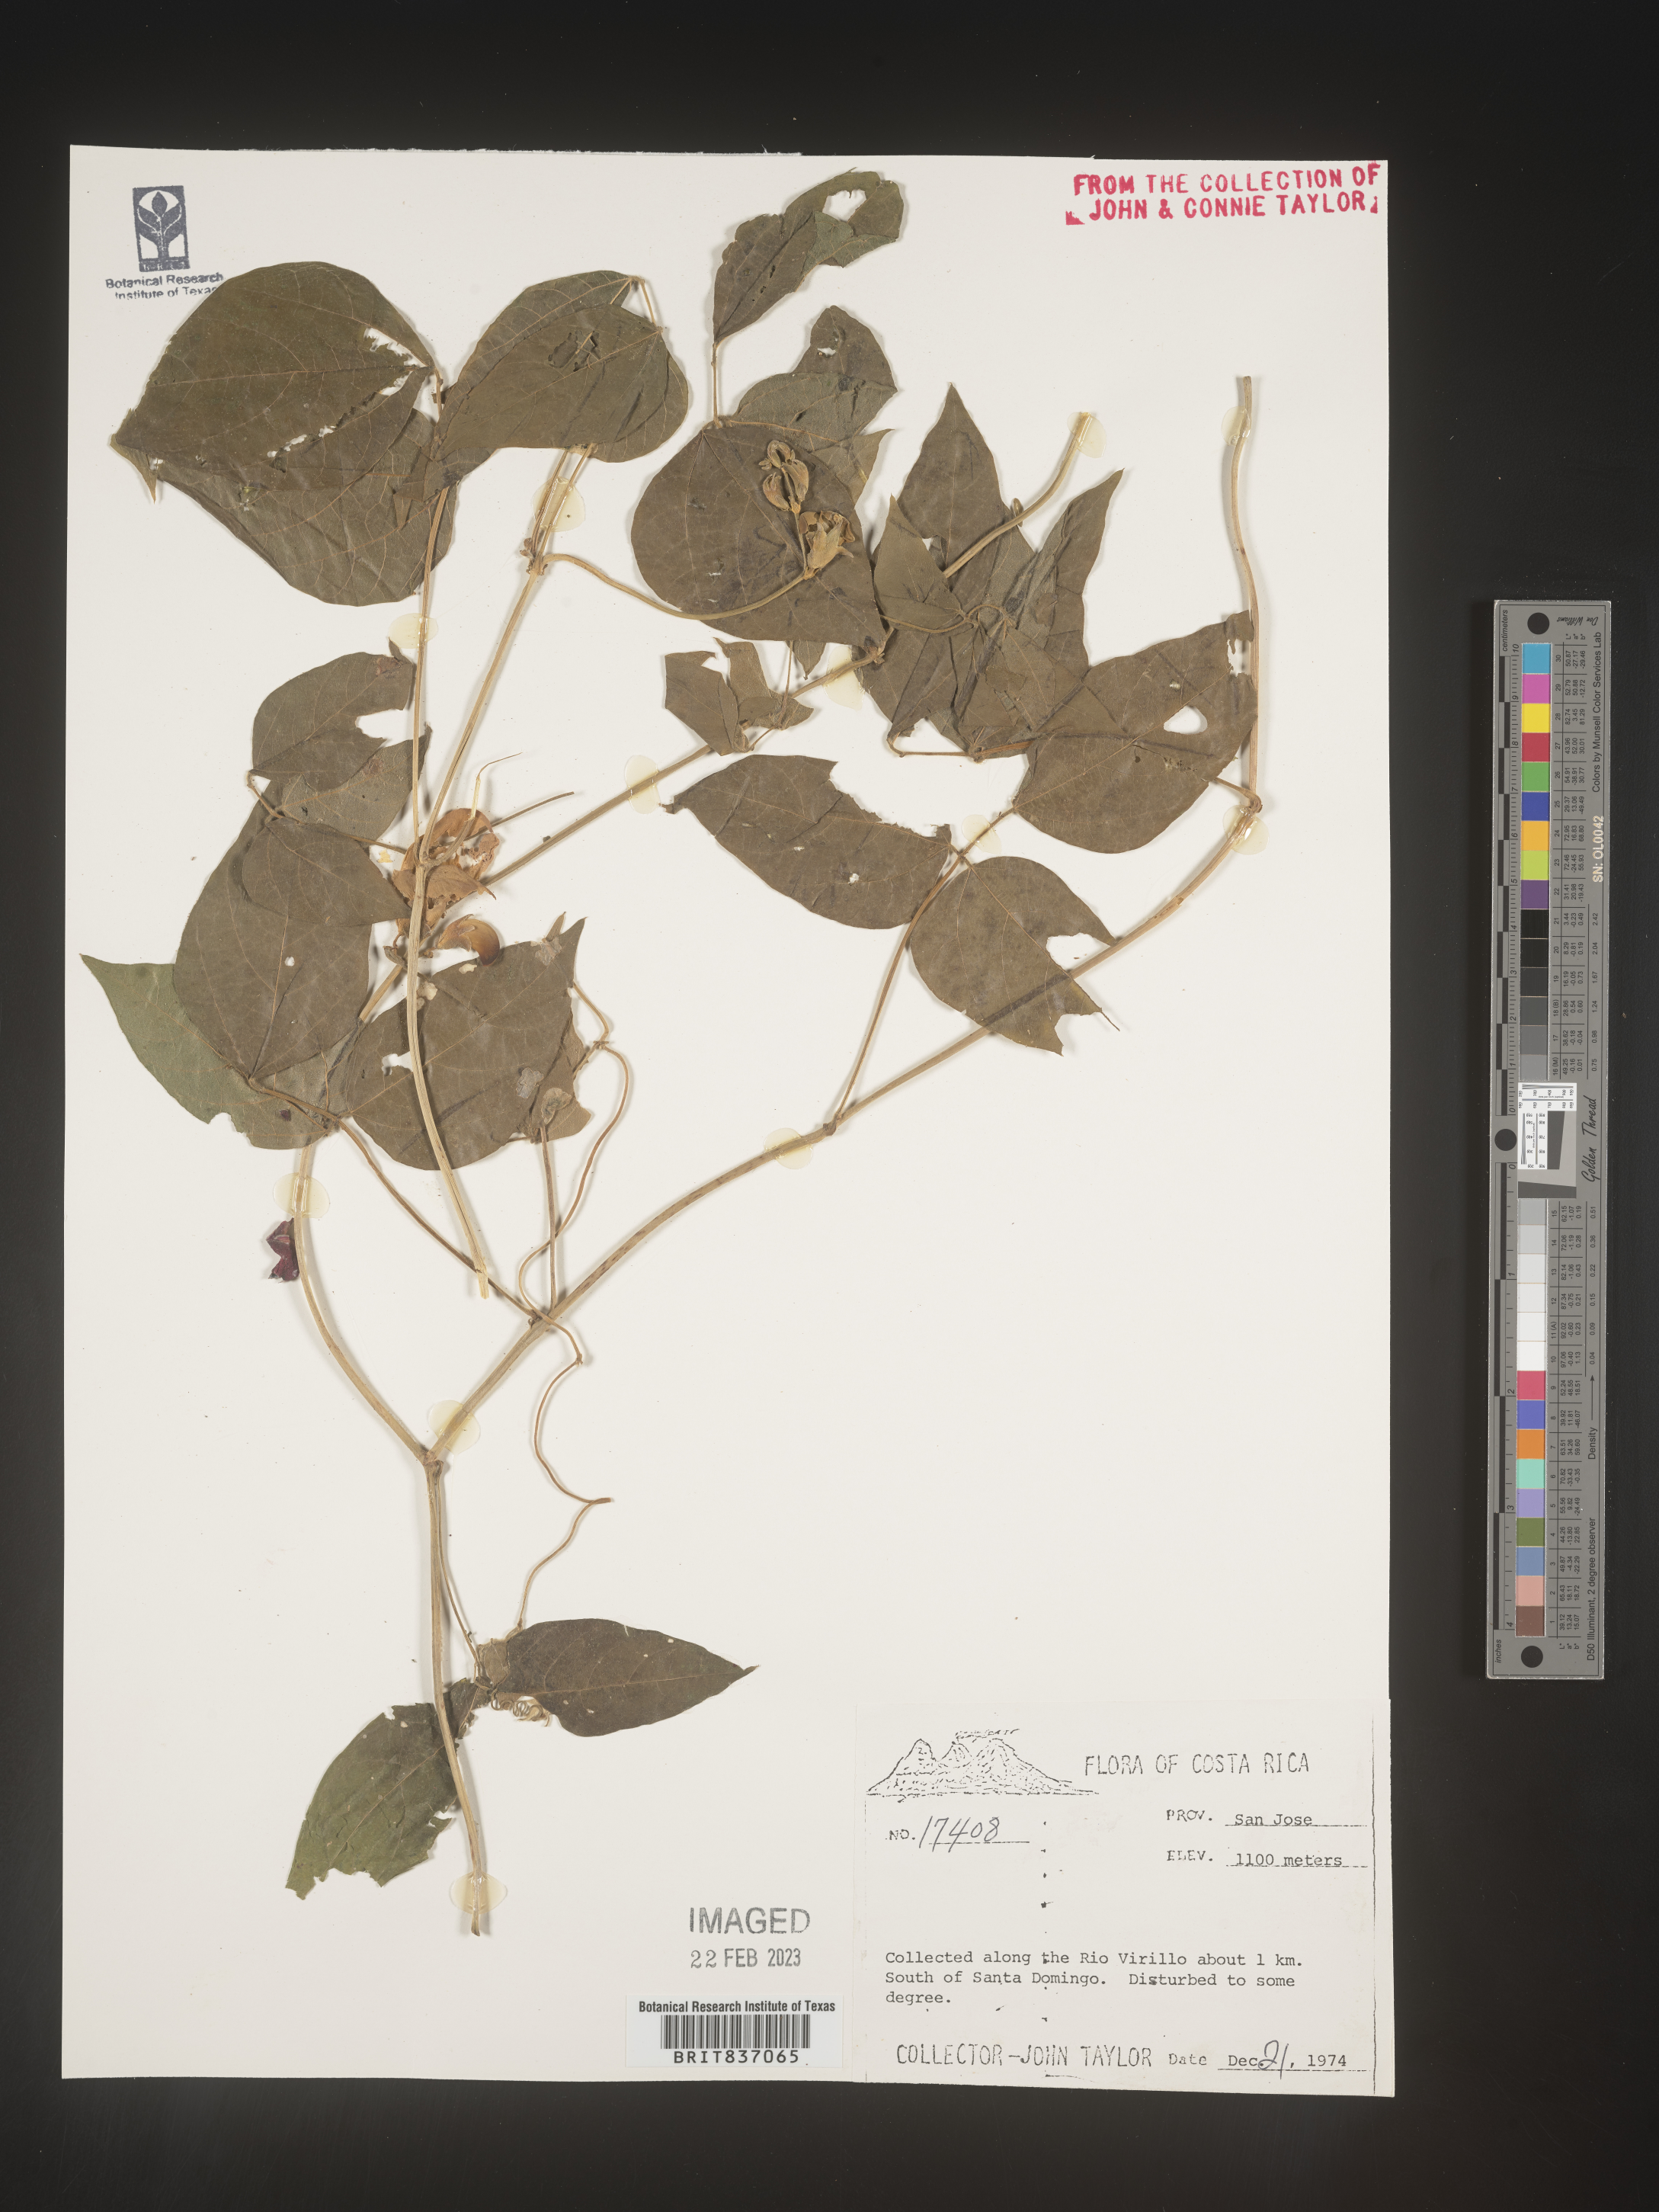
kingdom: Plantae
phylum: Tracheophyta
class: Magnoliopsida
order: Fabales
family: Fabaceae
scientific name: Fabaceae
